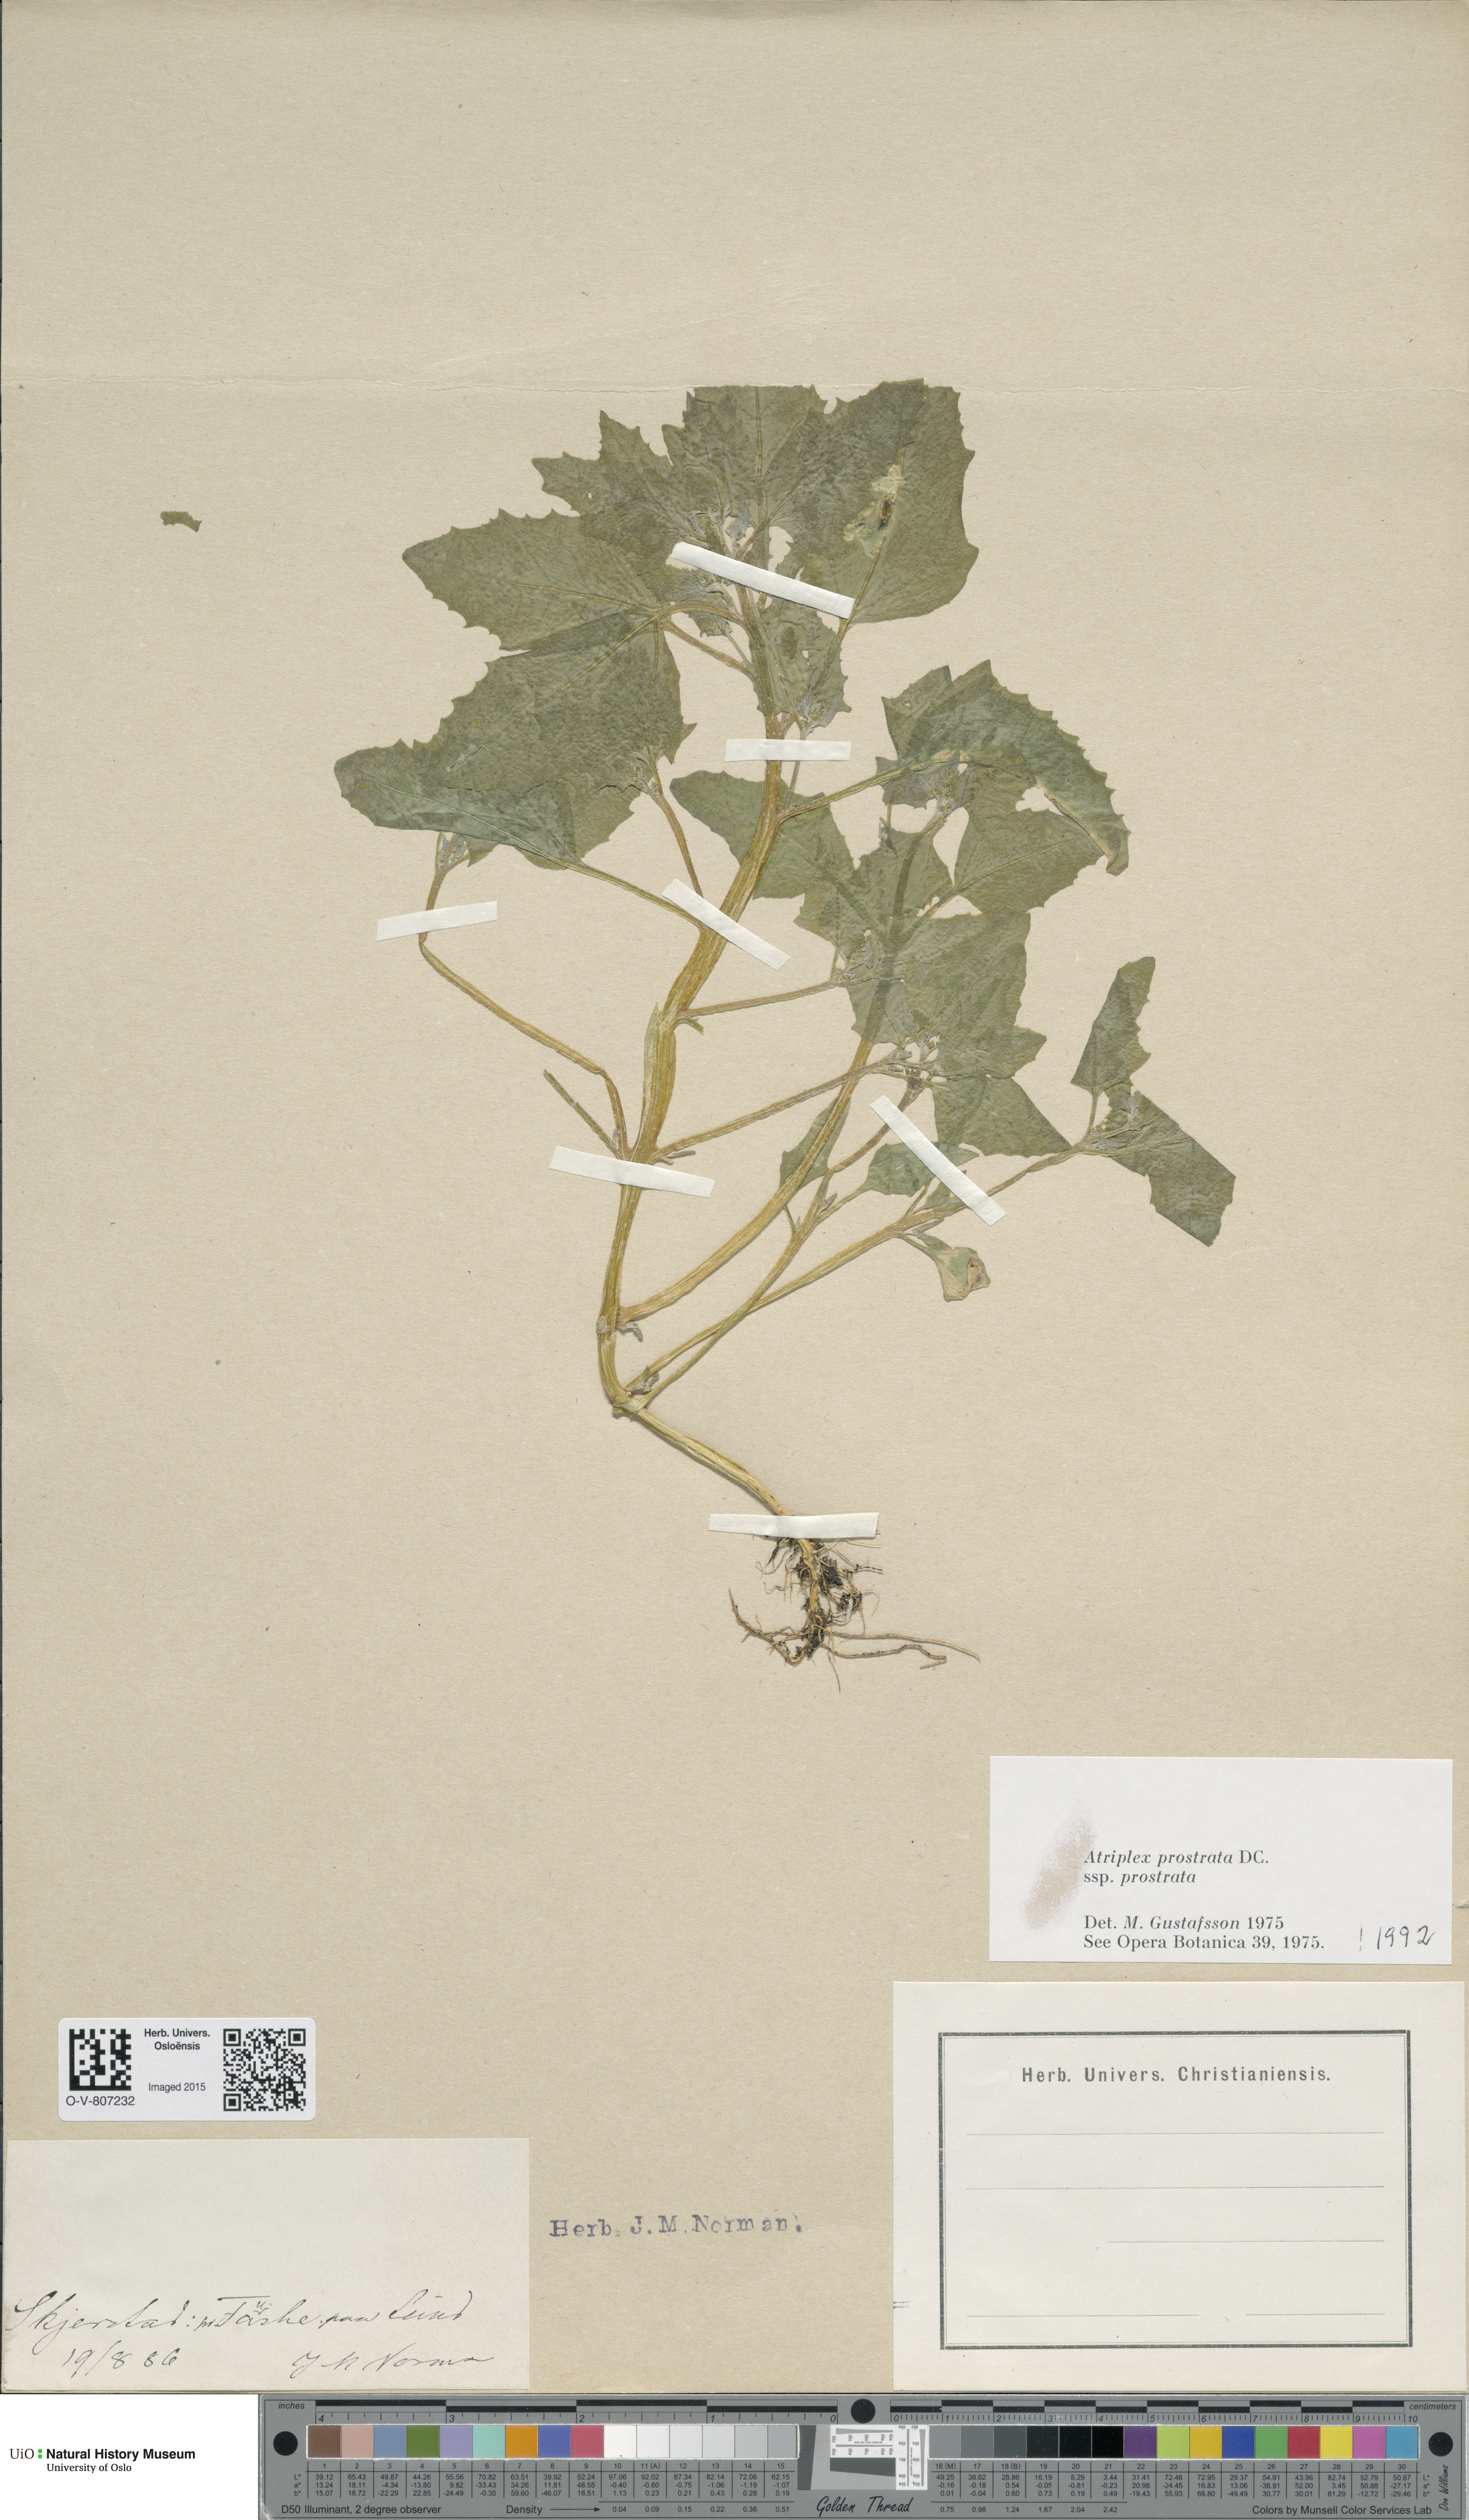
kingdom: Plantae
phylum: Tracheophyta
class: Magnoliopsida
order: Caryophyllales
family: Amaranthaceae
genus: Atriplex
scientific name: Atriplex prostrata
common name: Spear-leaved orache
